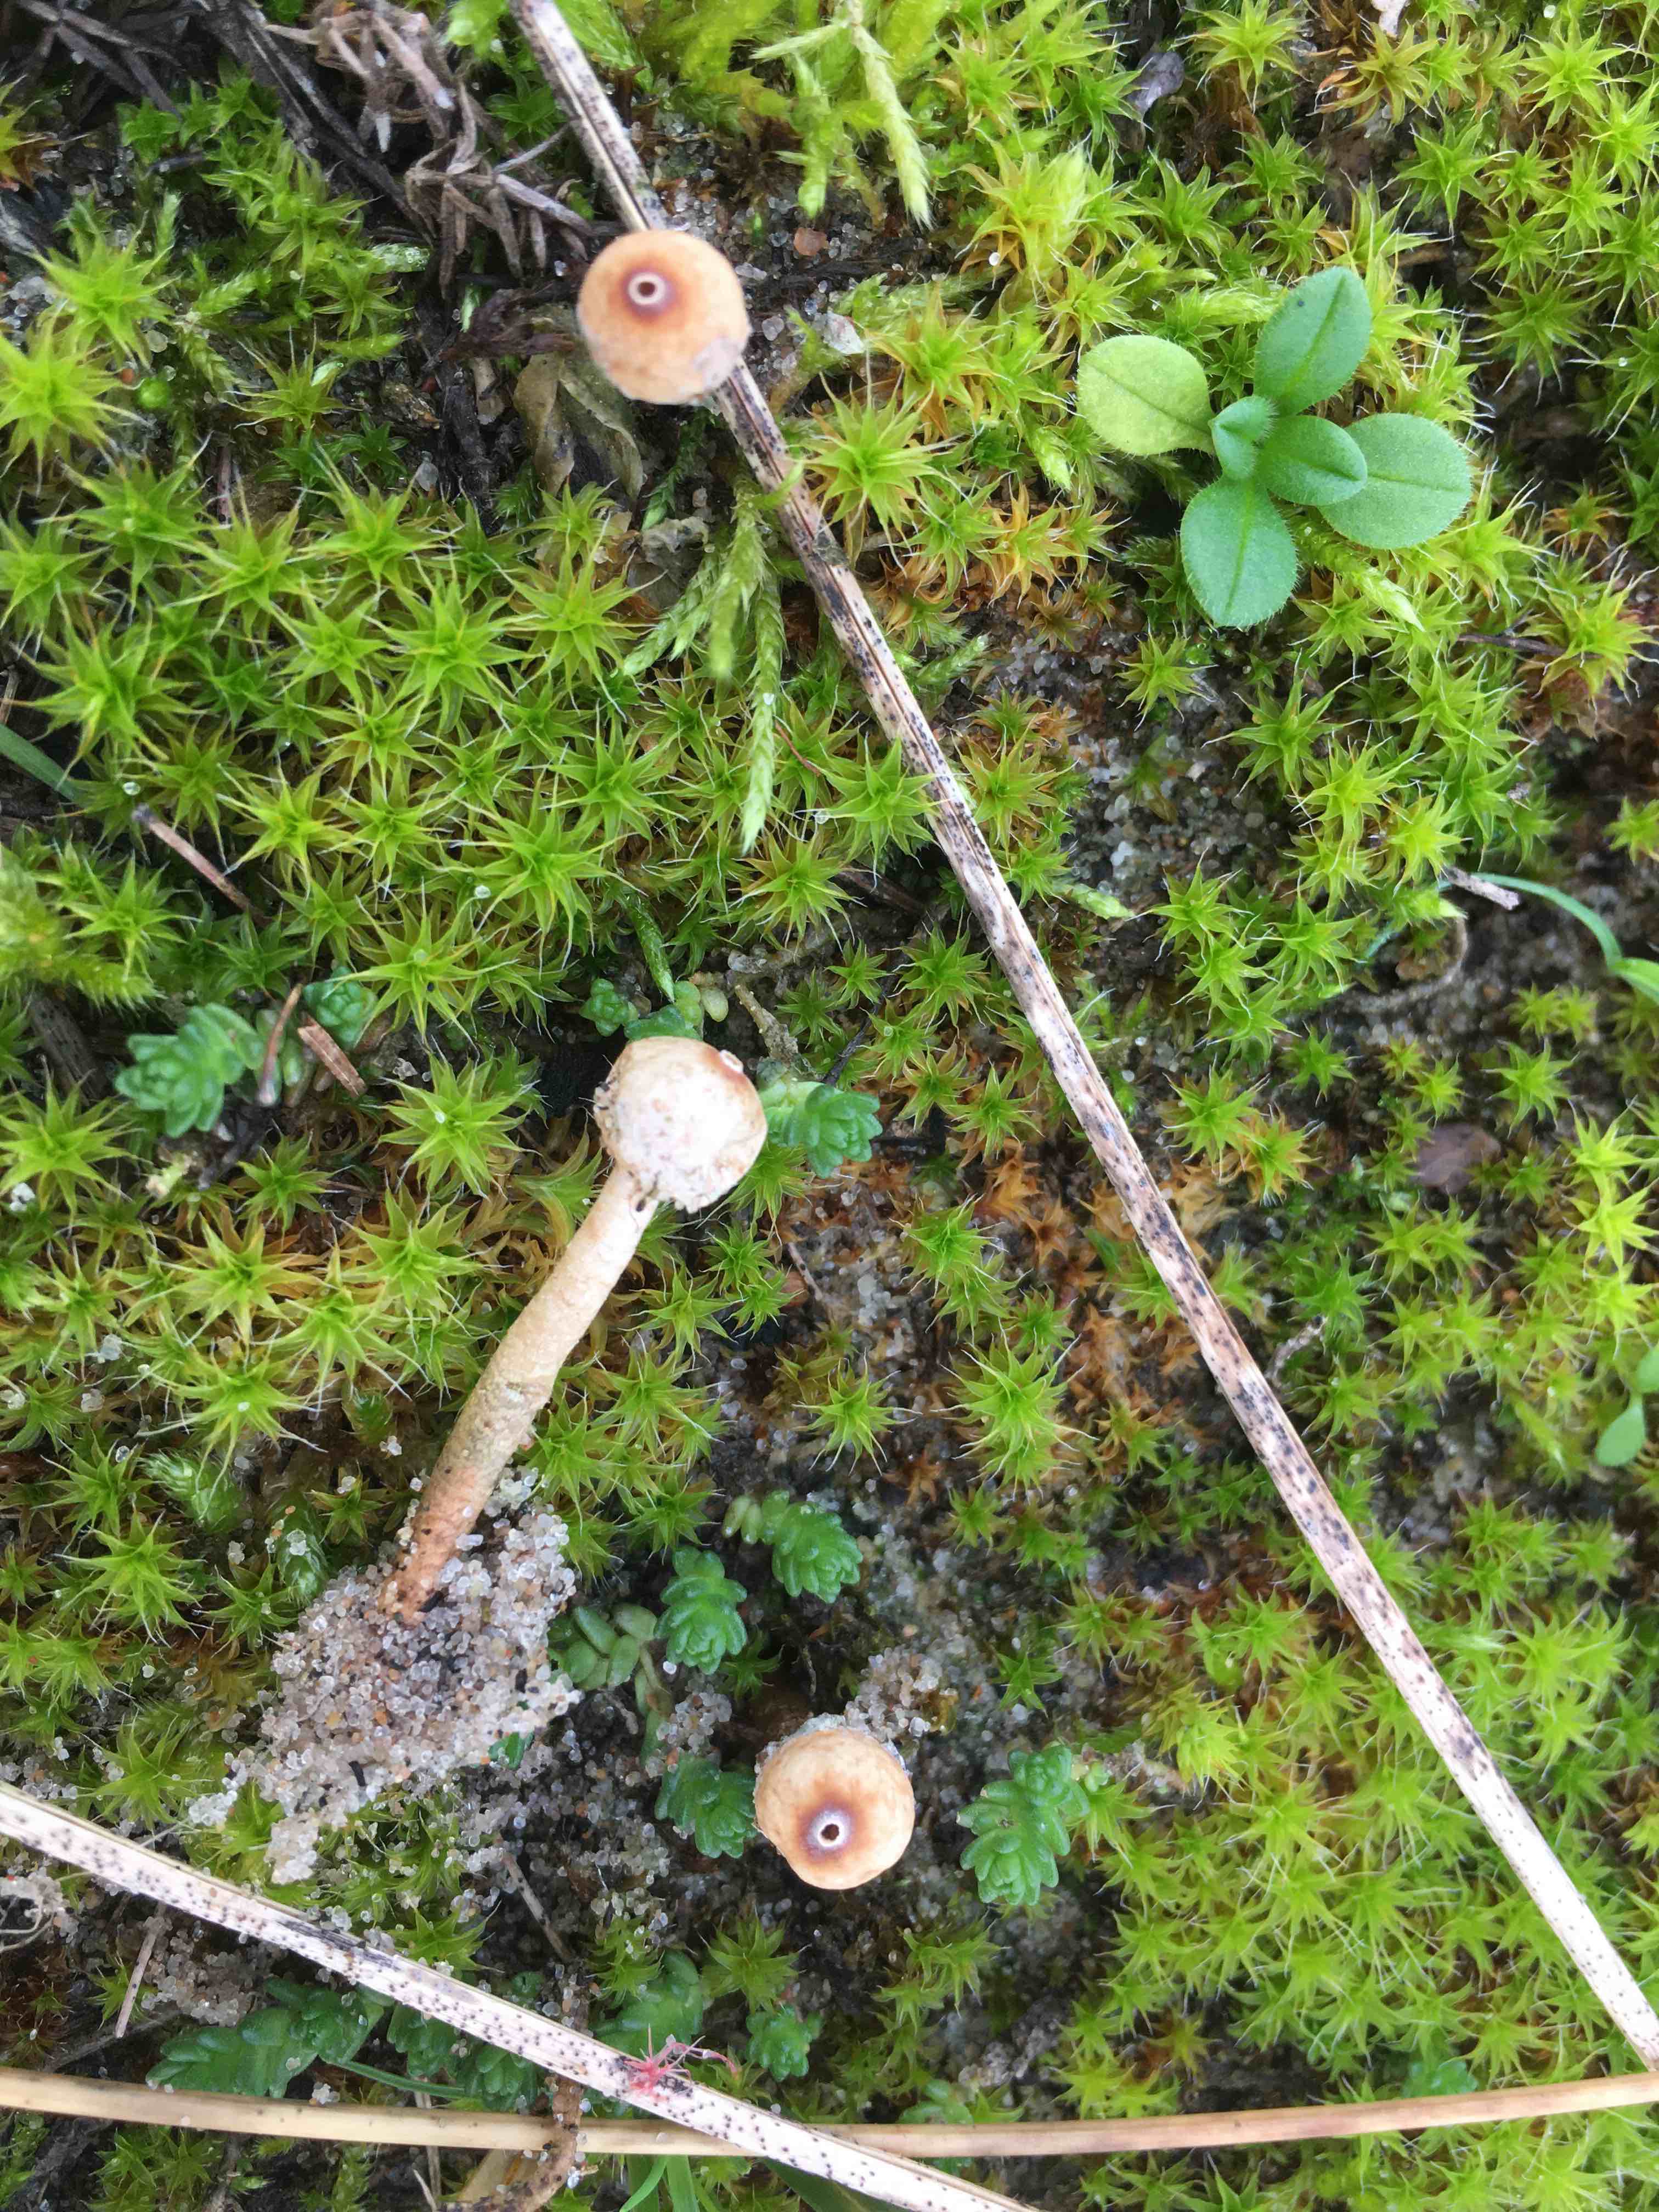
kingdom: Fungi
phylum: Basidiomycota
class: Agaricomycetes
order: Agaricales
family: Agaricaceae
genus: Tulostoma
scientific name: Tulostoma brumale
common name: vinter-stilkbovist
